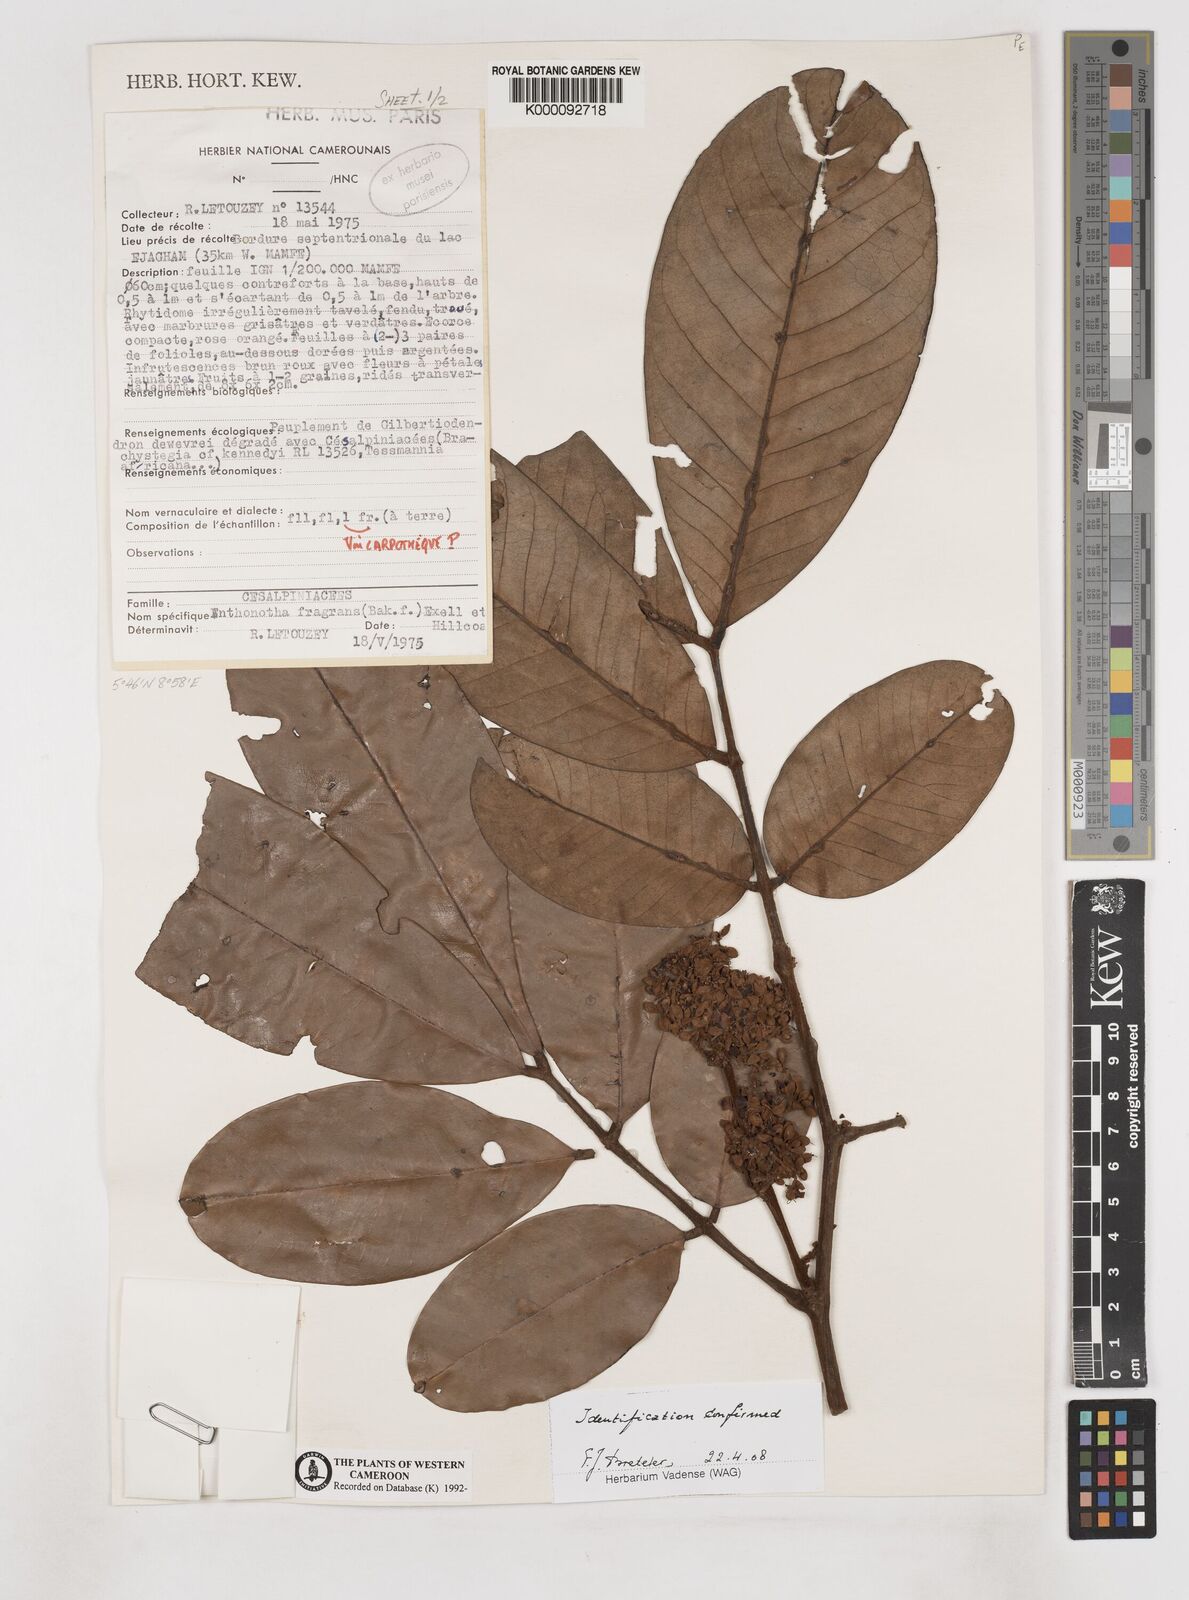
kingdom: Plantae
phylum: Tracheophyta
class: Magnoliopsida
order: Fabales
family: Fabaceae
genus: Anthonotha
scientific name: Anthonotha fragrans
